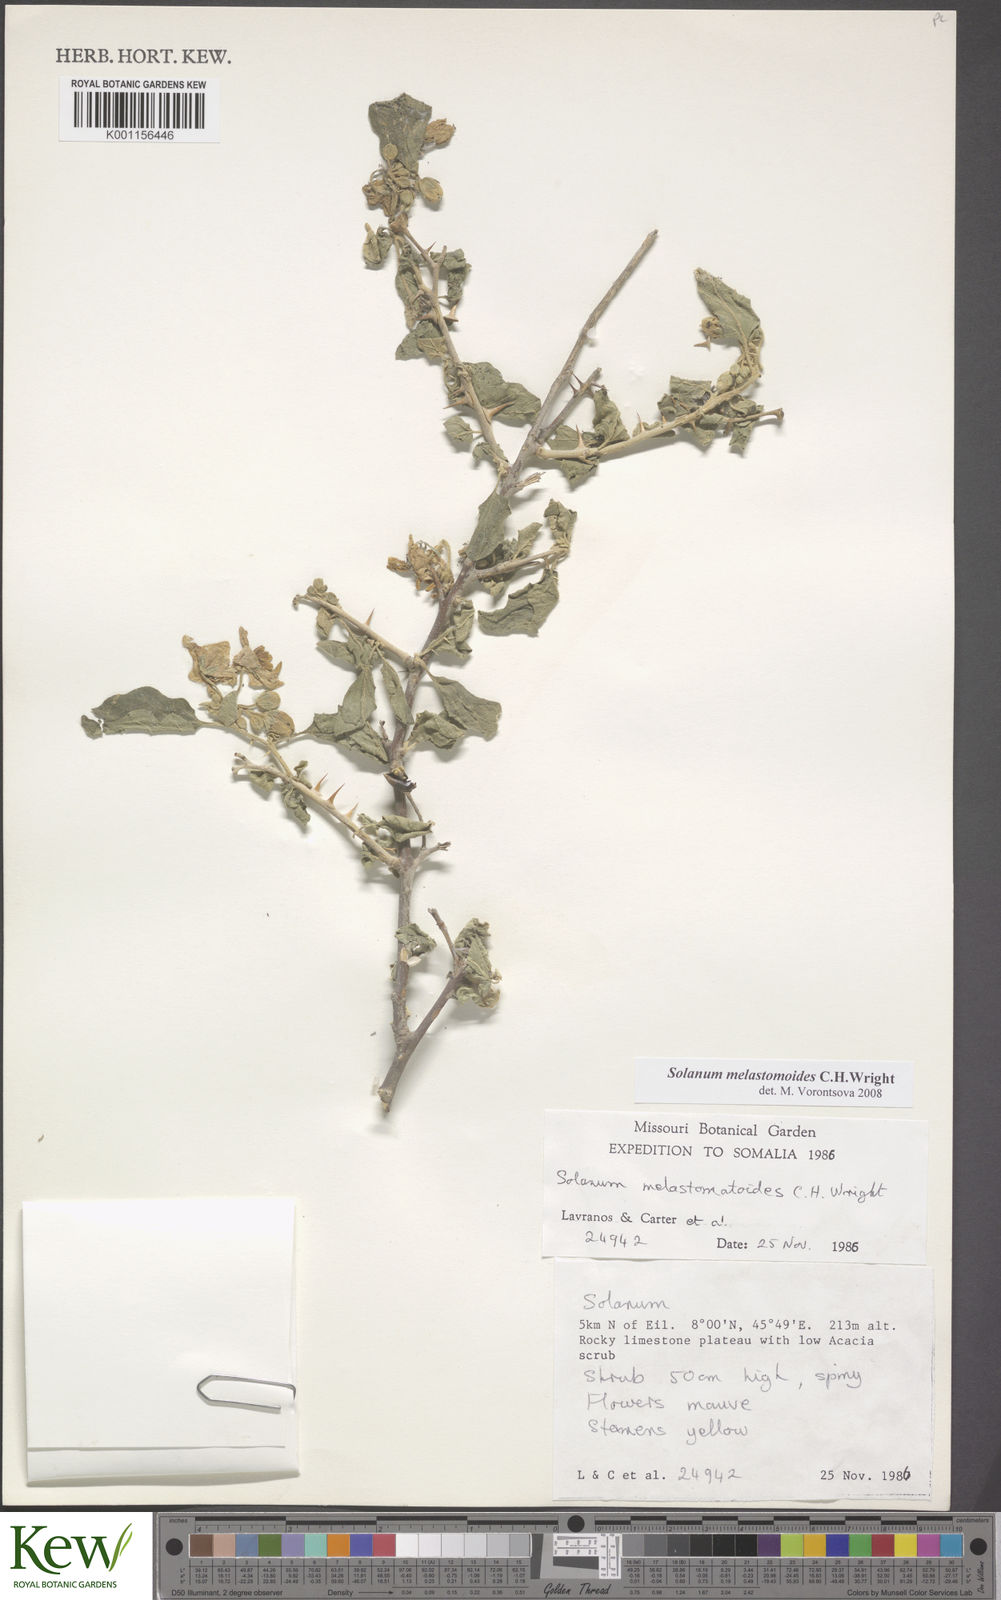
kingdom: Plantae
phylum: Tracheophyta
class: Magnoliopsida
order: Solanales
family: Solanaceae
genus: Solanum
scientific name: Solanum melastomoides
